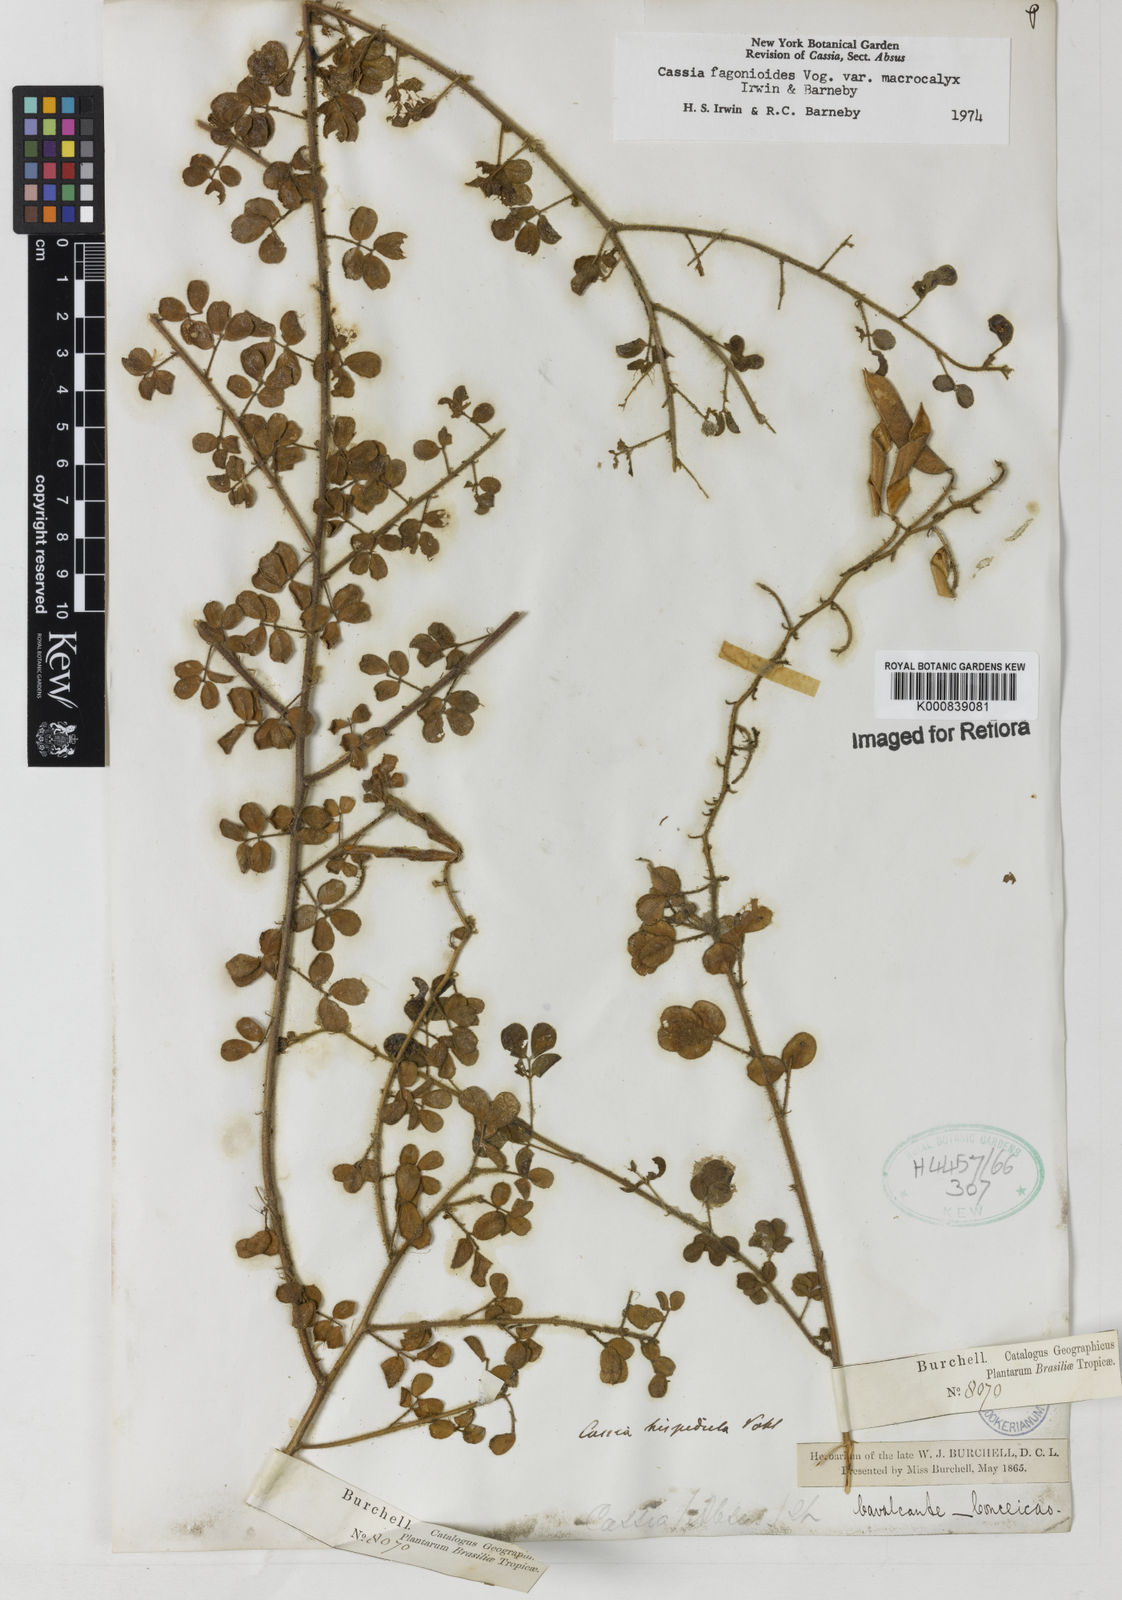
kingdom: Plantae
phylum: Tracheophyta
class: Magnoliopsida
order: Fabales
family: Fabaceae
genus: Chamaecrista
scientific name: Chamaecrista fagonioides
